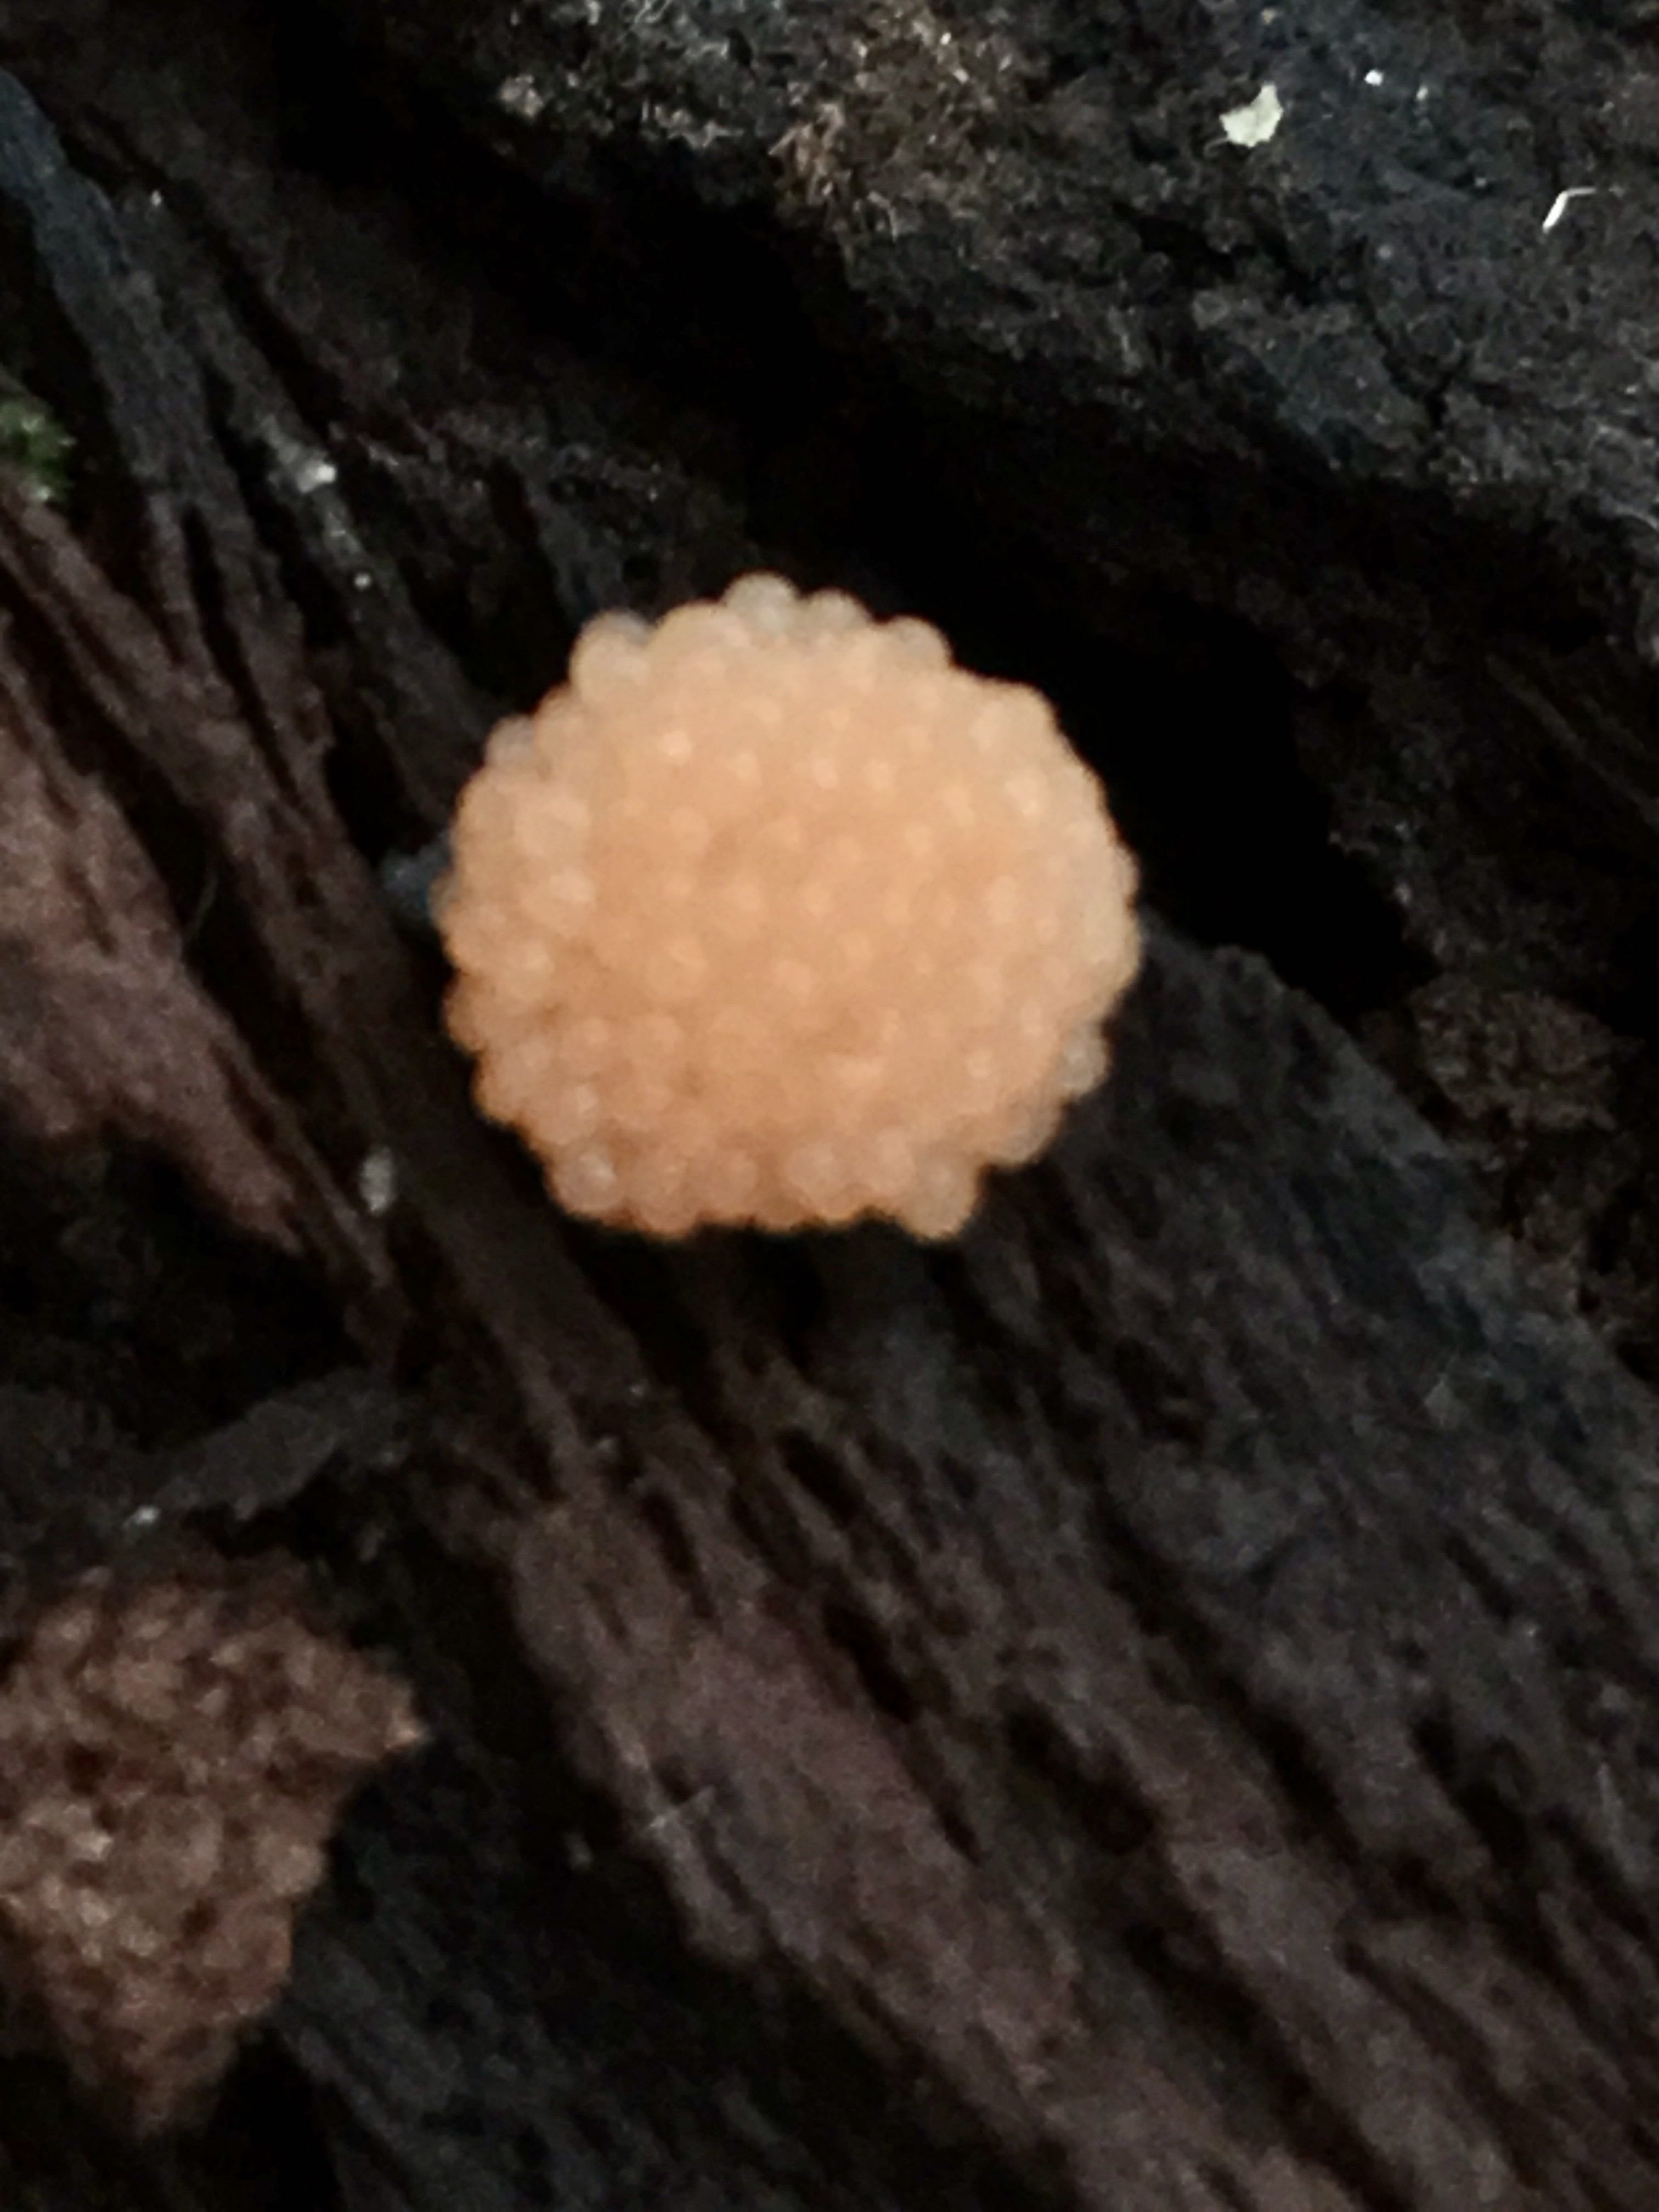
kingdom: Protozoa
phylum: Mycetozoa
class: Myxomycetes
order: Cribrariales
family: Tubiferaceae
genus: Tubifera
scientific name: Tubifera ferruginosa
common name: kanel-støvrør
